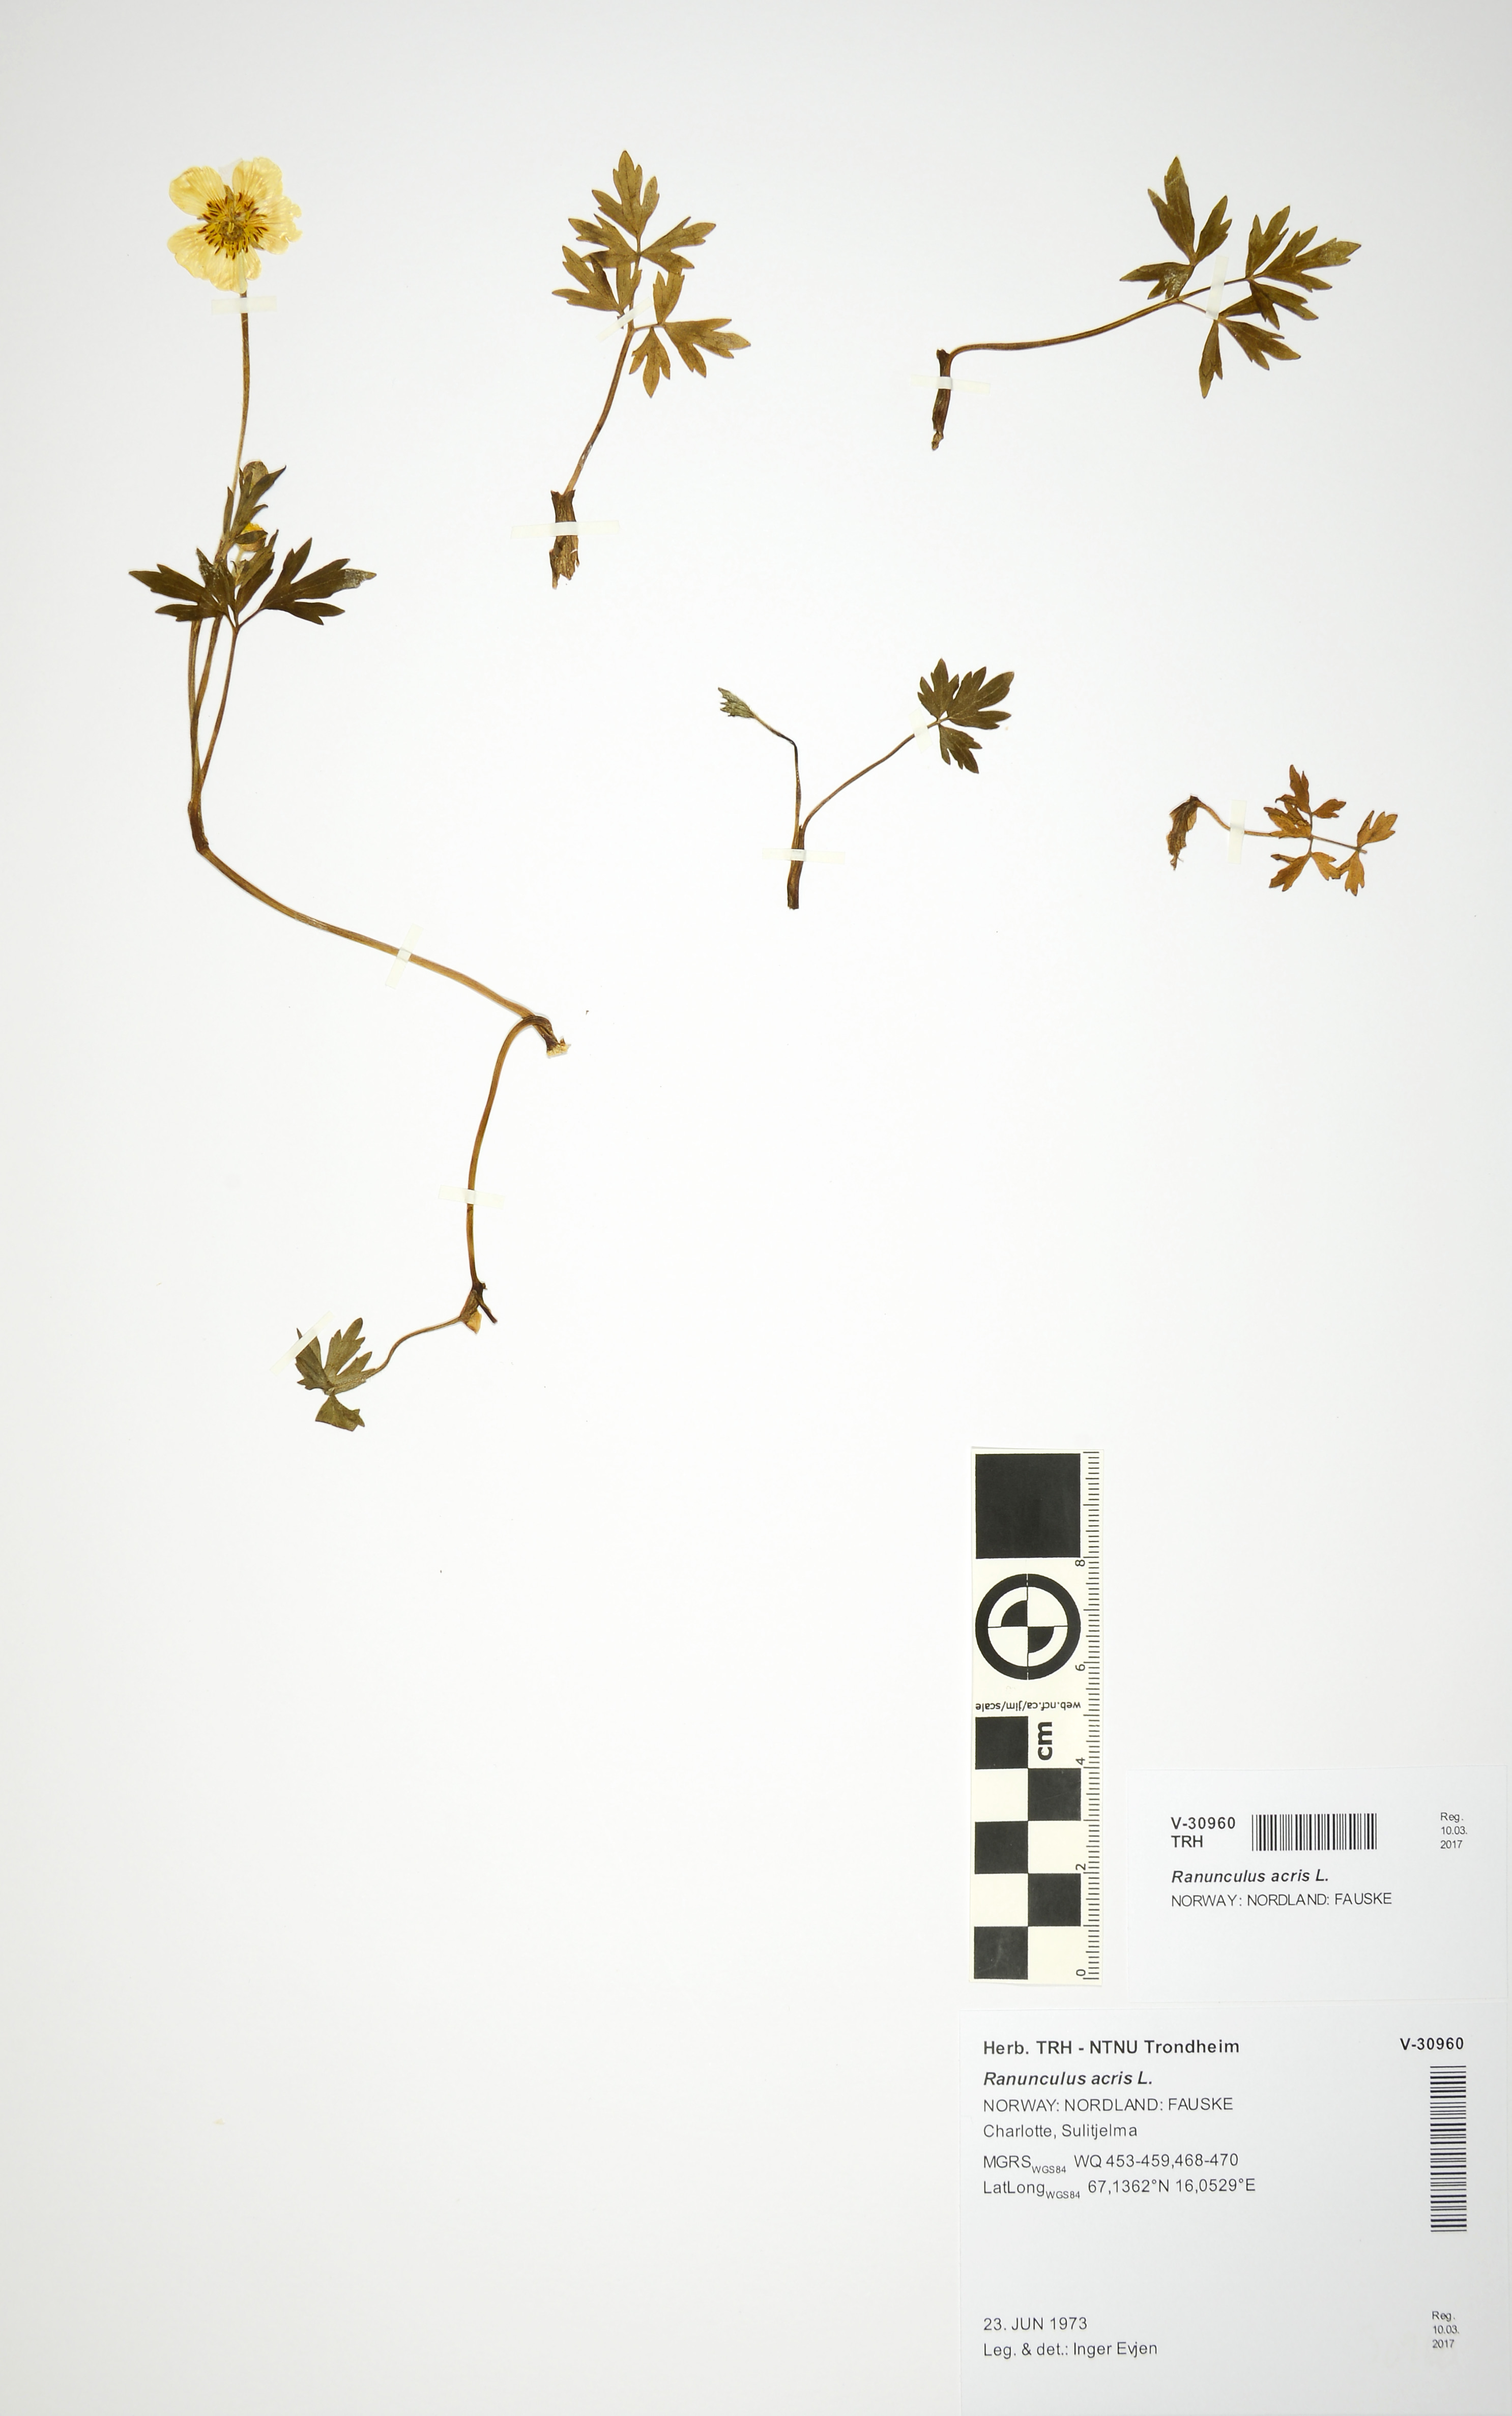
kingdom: Plantae
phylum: Tracheophyta
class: Magnoliopsida
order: Ranunculales
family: Ranunculaceae
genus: Ranunculus
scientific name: Ranunculus acris
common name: Meadow buttercup
